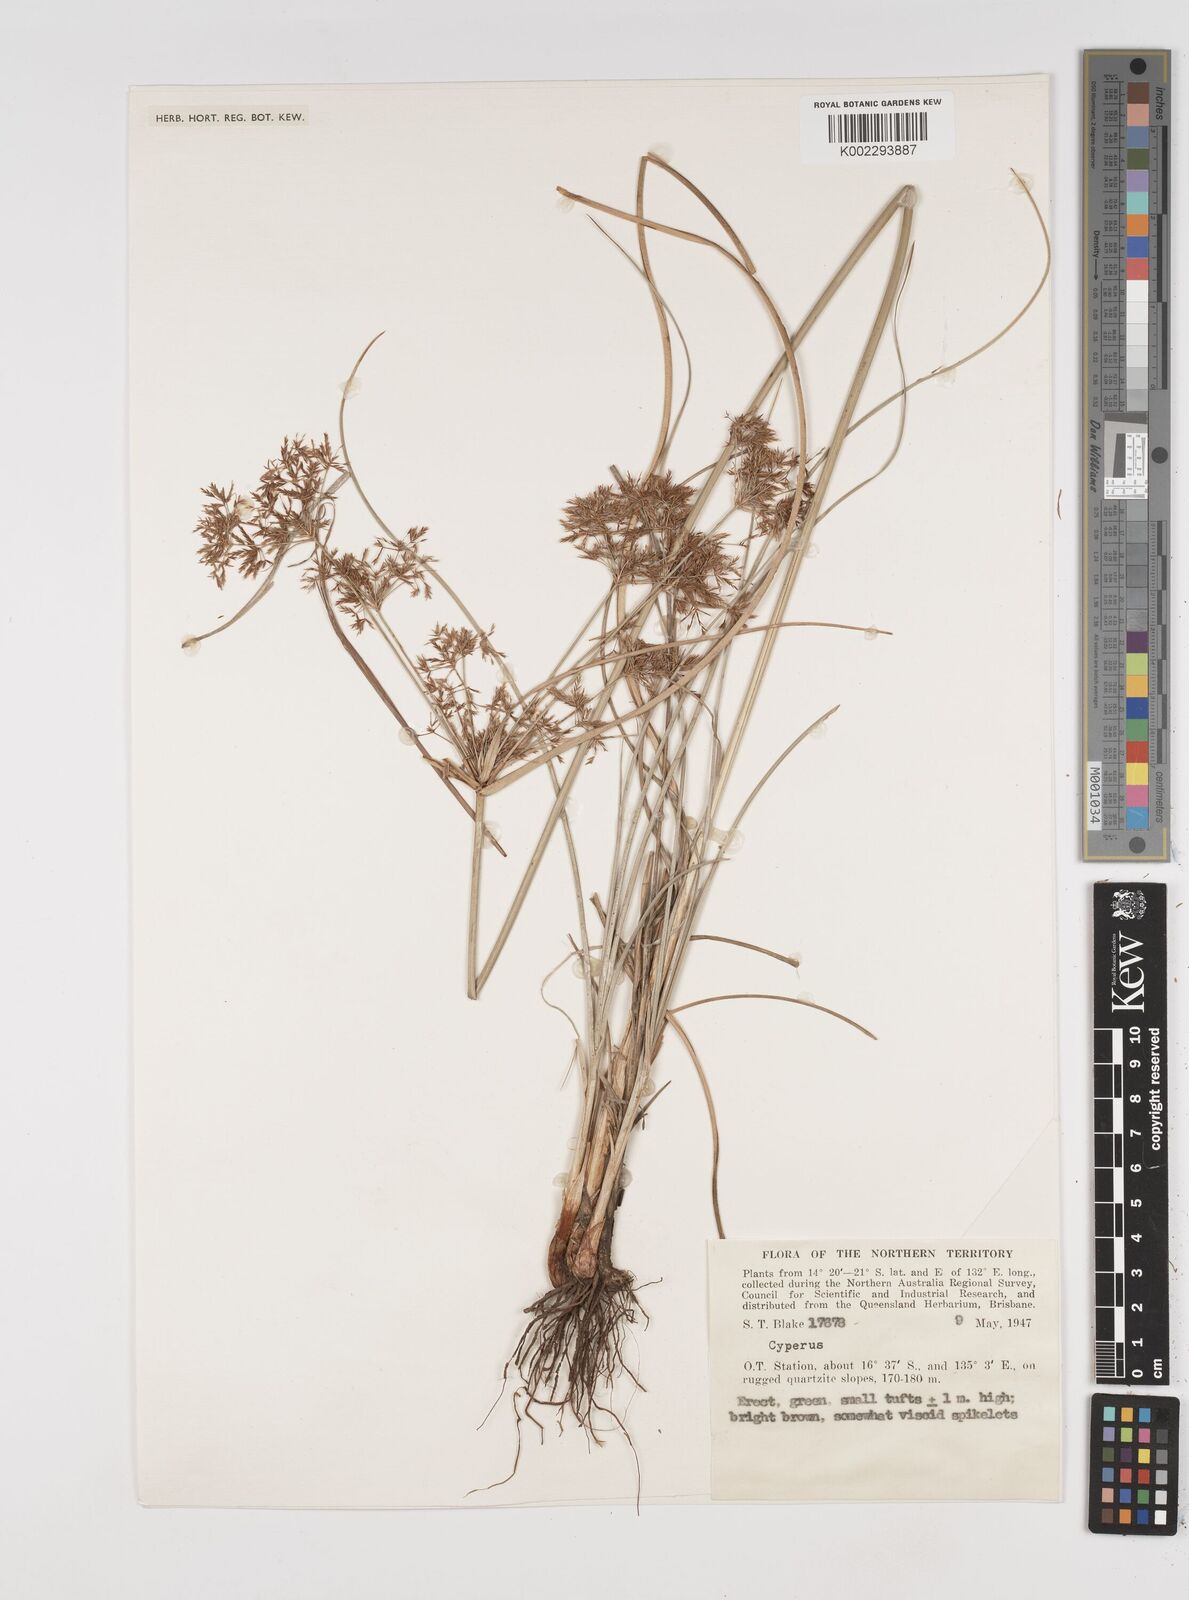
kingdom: Plantae
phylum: Tracheophyta
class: Liliopsida
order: Poales
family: Cyperaceae
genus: Cyperus
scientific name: Cyperus
